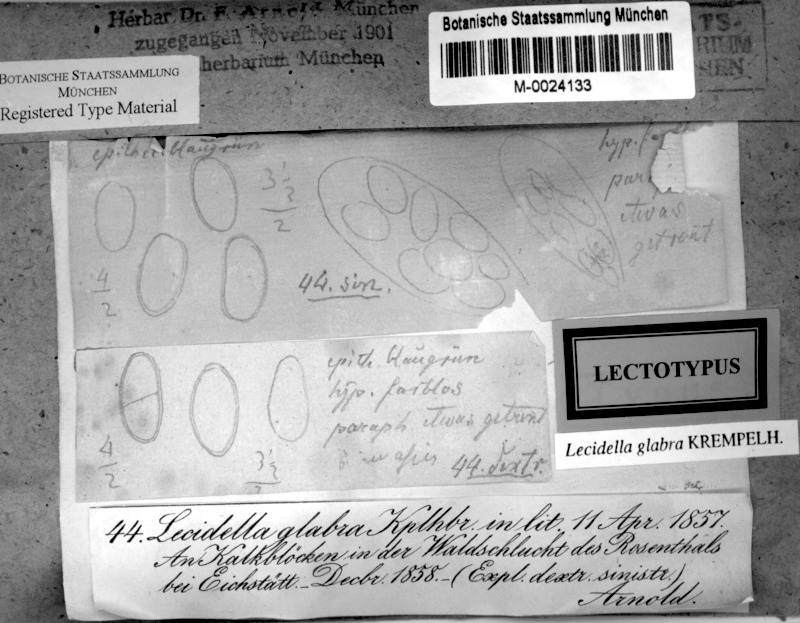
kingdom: Fungi
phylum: Ascomycota
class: Lecanoromycetes
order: Lecanorales
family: Lecanoraceae
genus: Lecidella
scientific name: Lecidella stigmatea
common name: Limestone disc lichen
